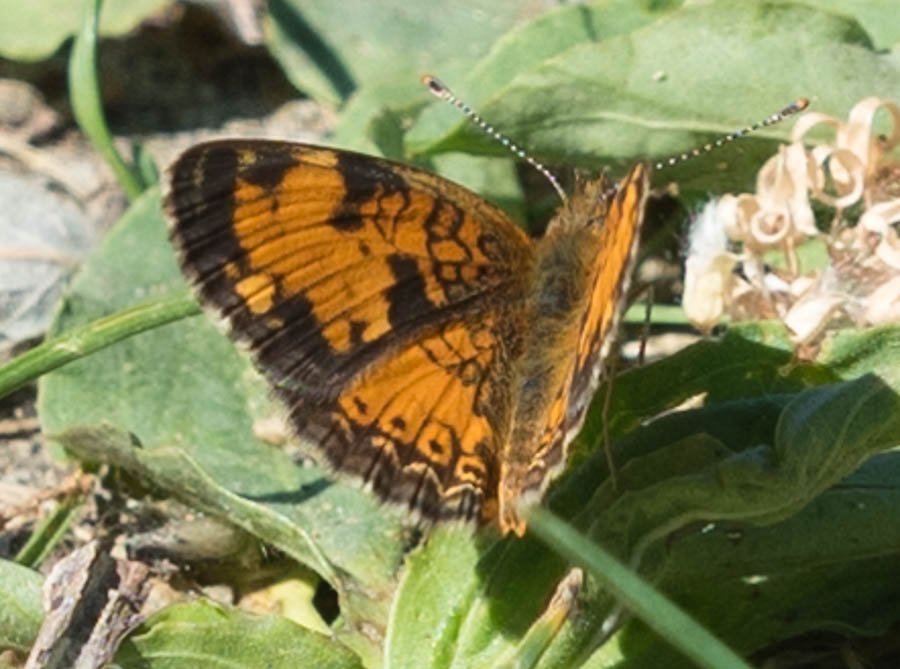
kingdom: Animalia
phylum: Arthropoda
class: Insecta
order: Lepidoptera
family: Nymphalidae
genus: Phyciodes
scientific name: Phyciodes tharos
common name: Northern Crescent
